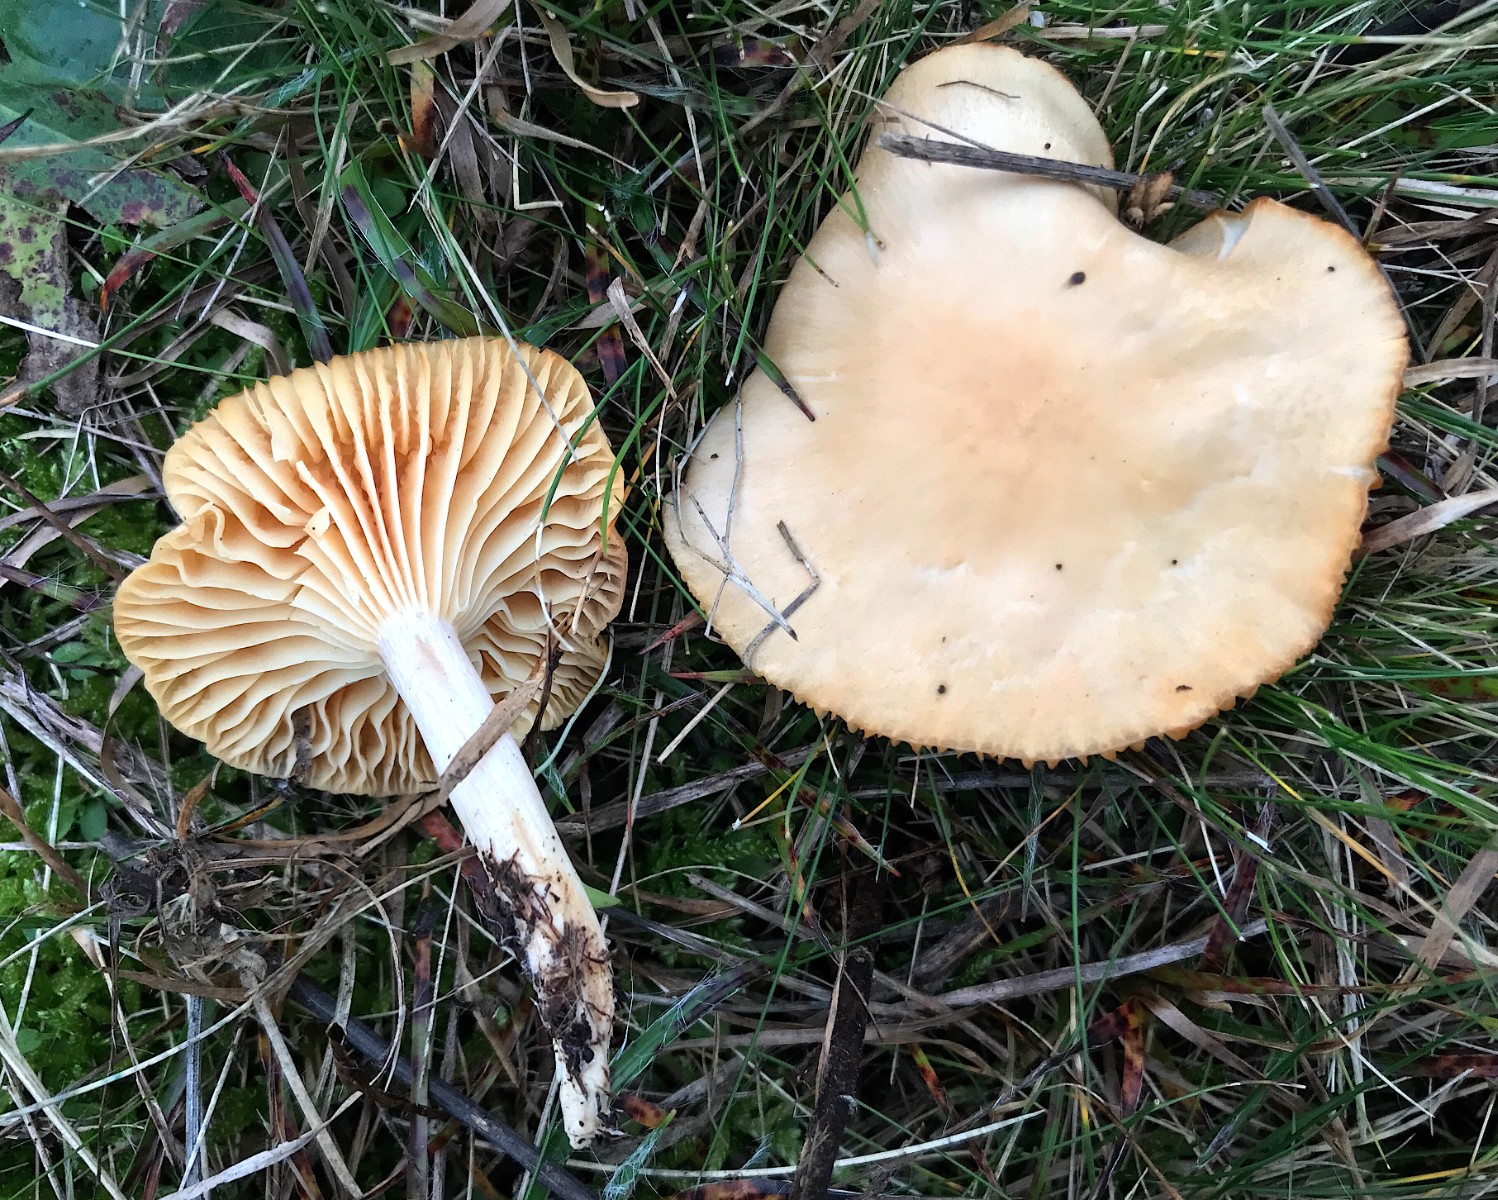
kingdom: Fungi
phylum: Basidiomycota
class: Agaricomycetes
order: Agaricales
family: Hygrophoraceae
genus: Cuphophyllus
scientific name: Cuphophyllus pratensis
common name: eng-vokshat
